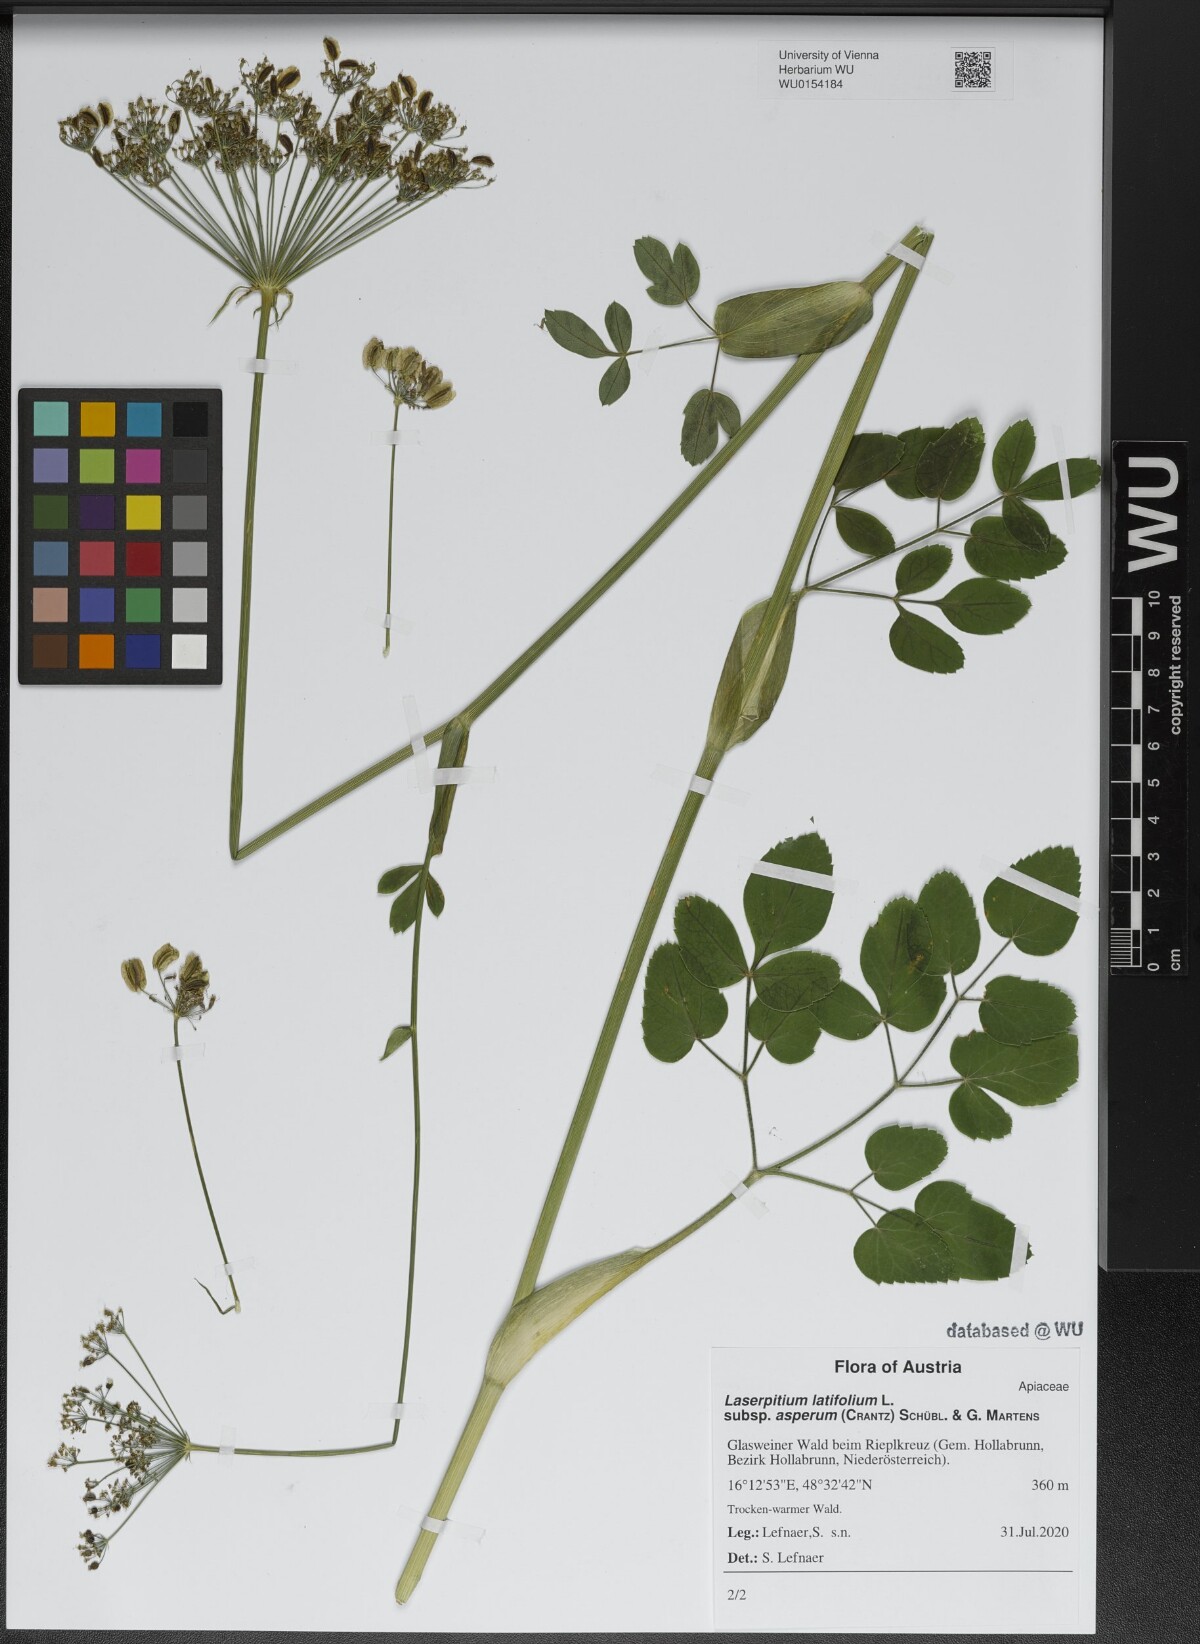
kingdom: Plantae
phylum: Tracheophyta
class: Magnoliopsida
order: Apiales
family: Apiaceae
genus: Laserpitium
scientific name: Laserpitium latifolium
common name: Broadleaf sermountain
